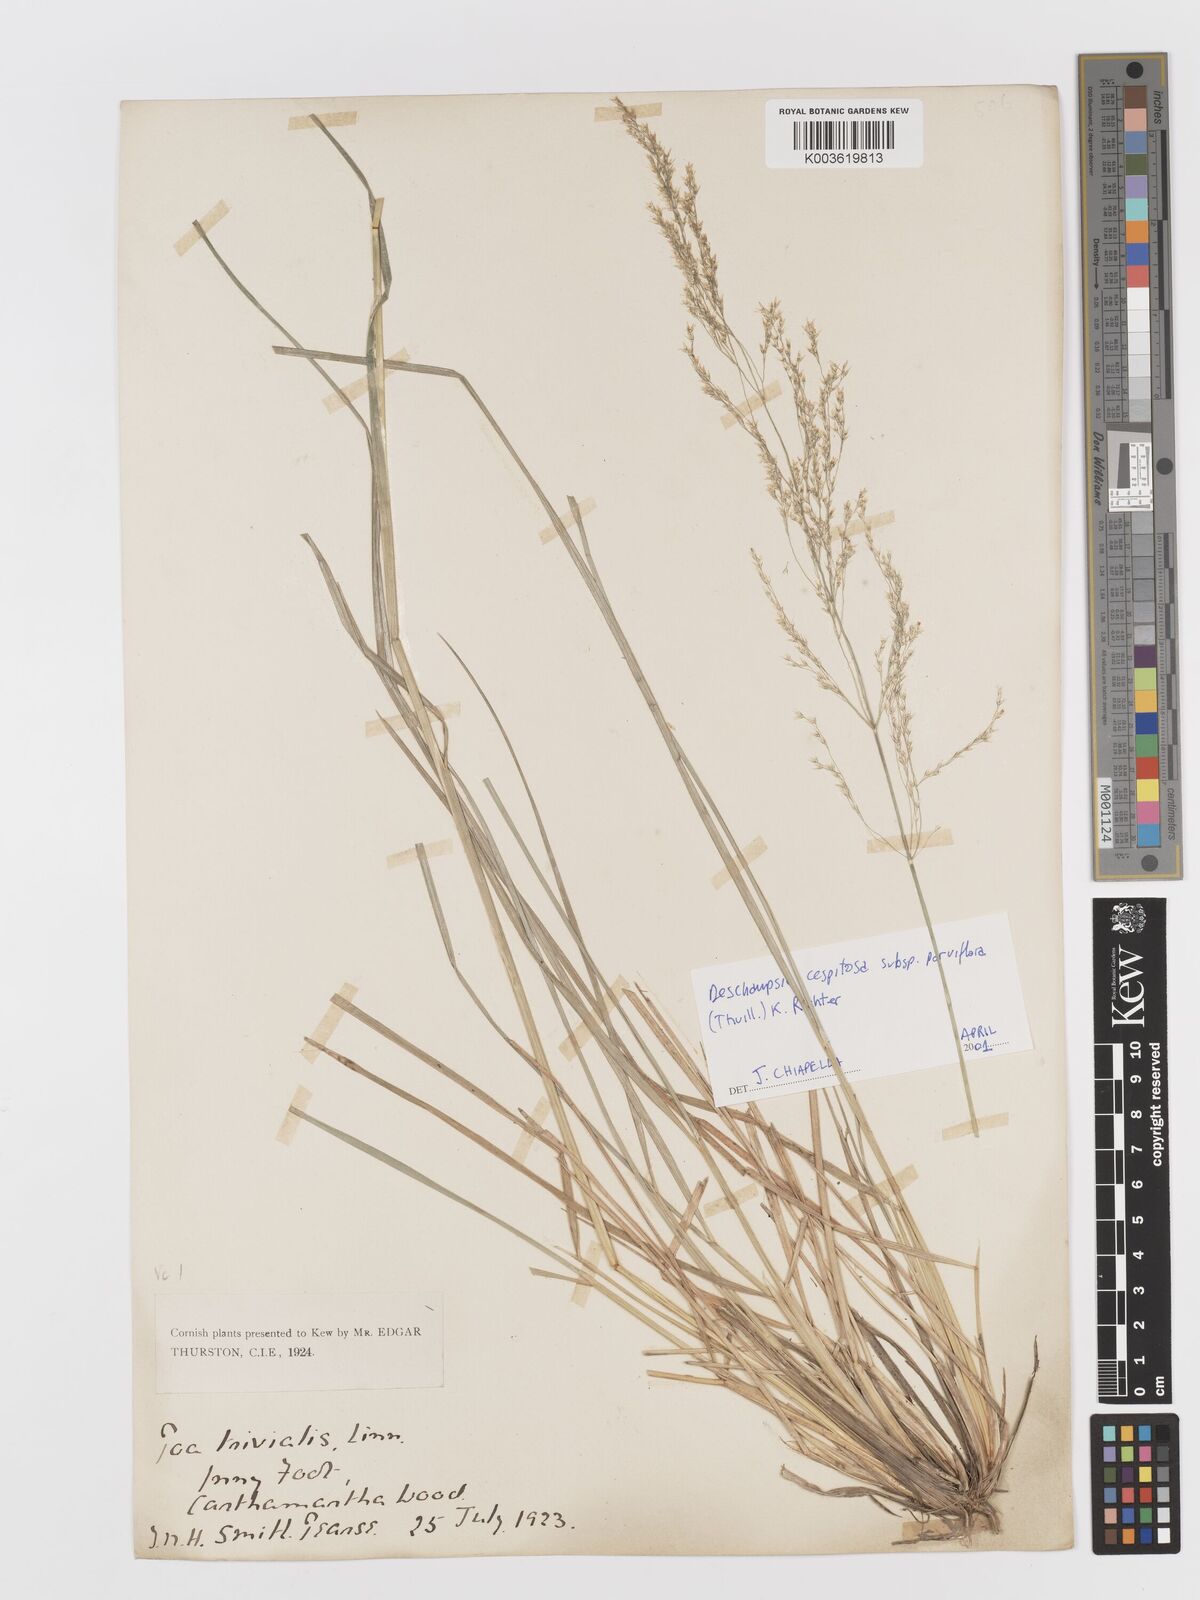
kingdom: Plantae
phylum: Tracheophyta
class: Liliopsida
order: Poales
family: Poaceae
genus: Deschampsia
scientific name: Deschampsia cespitosa
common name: Tufted hair-grass
